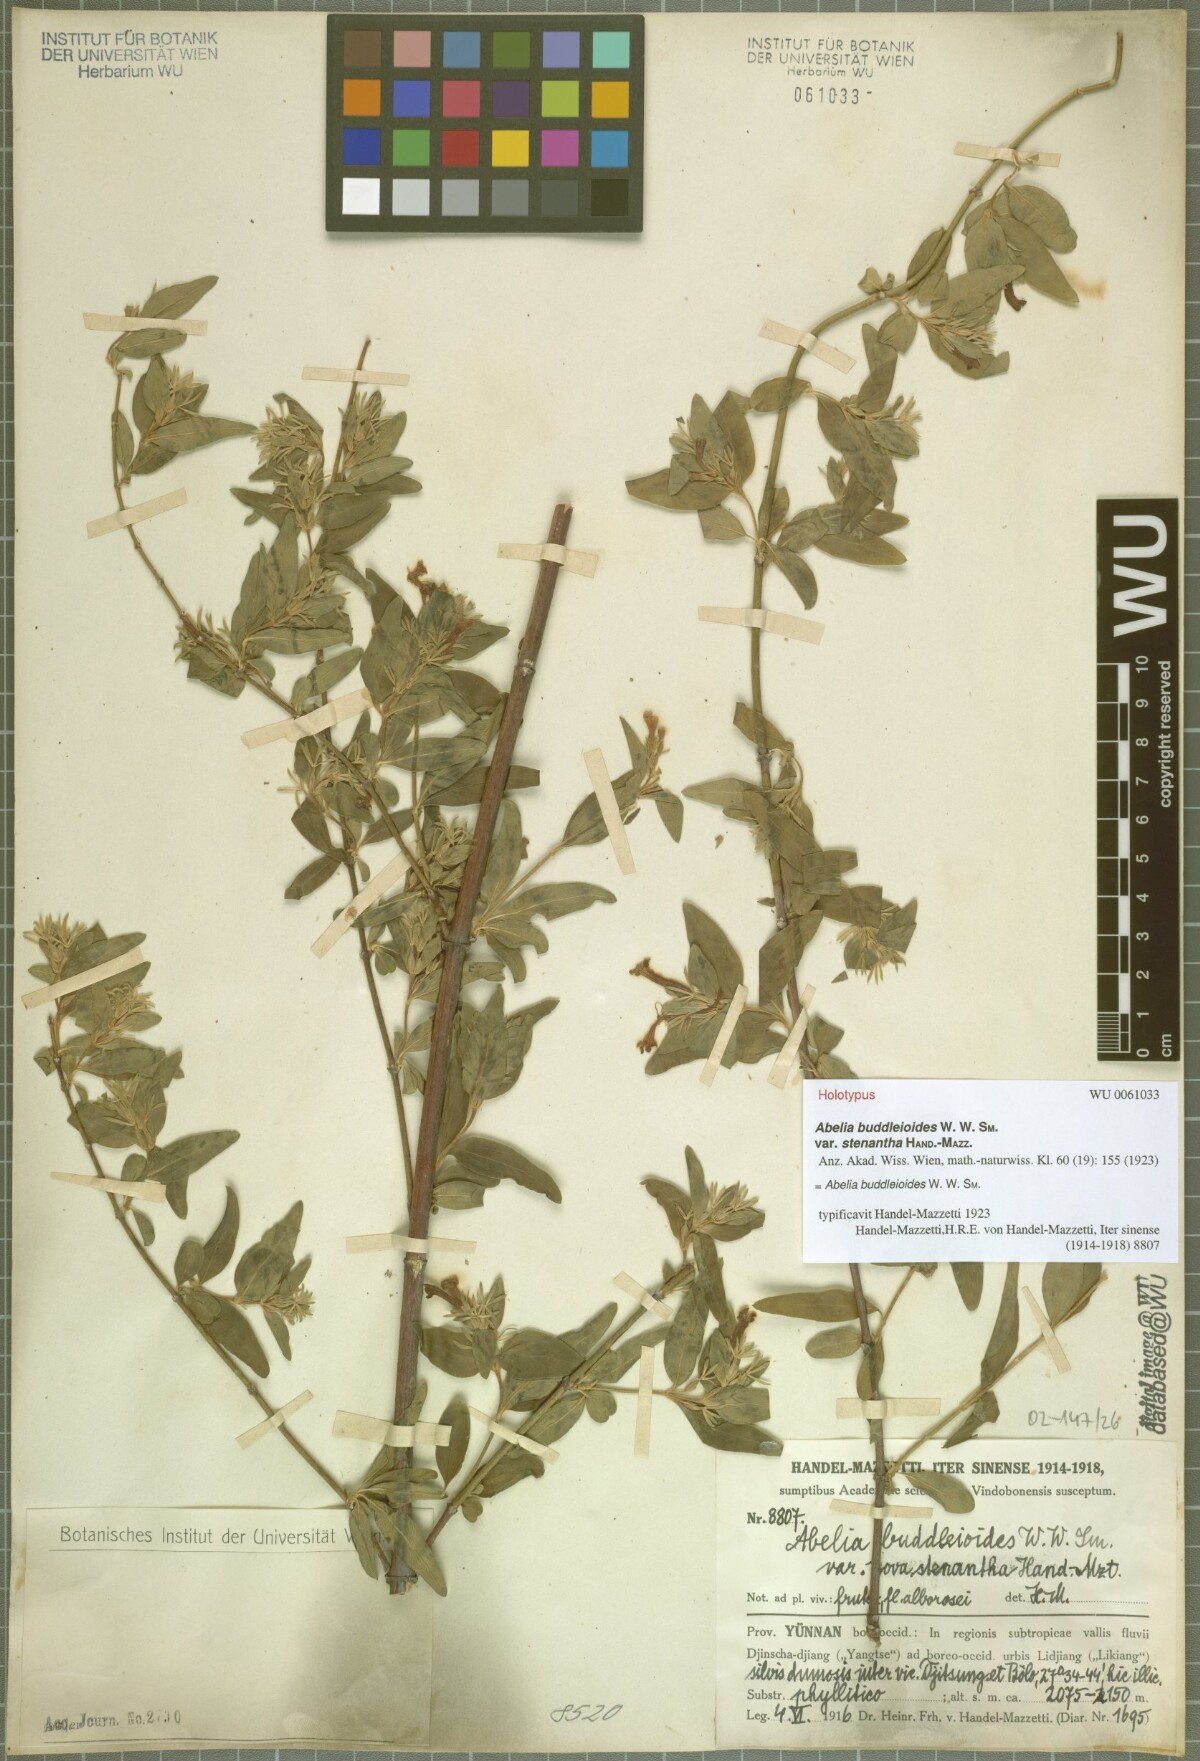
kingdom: Plantae
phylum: Tracheophyta
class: Magnoliopsida
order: Dipsacales
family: Caprifoliaceae
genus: Zabelia
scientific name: Zabelia triflora
